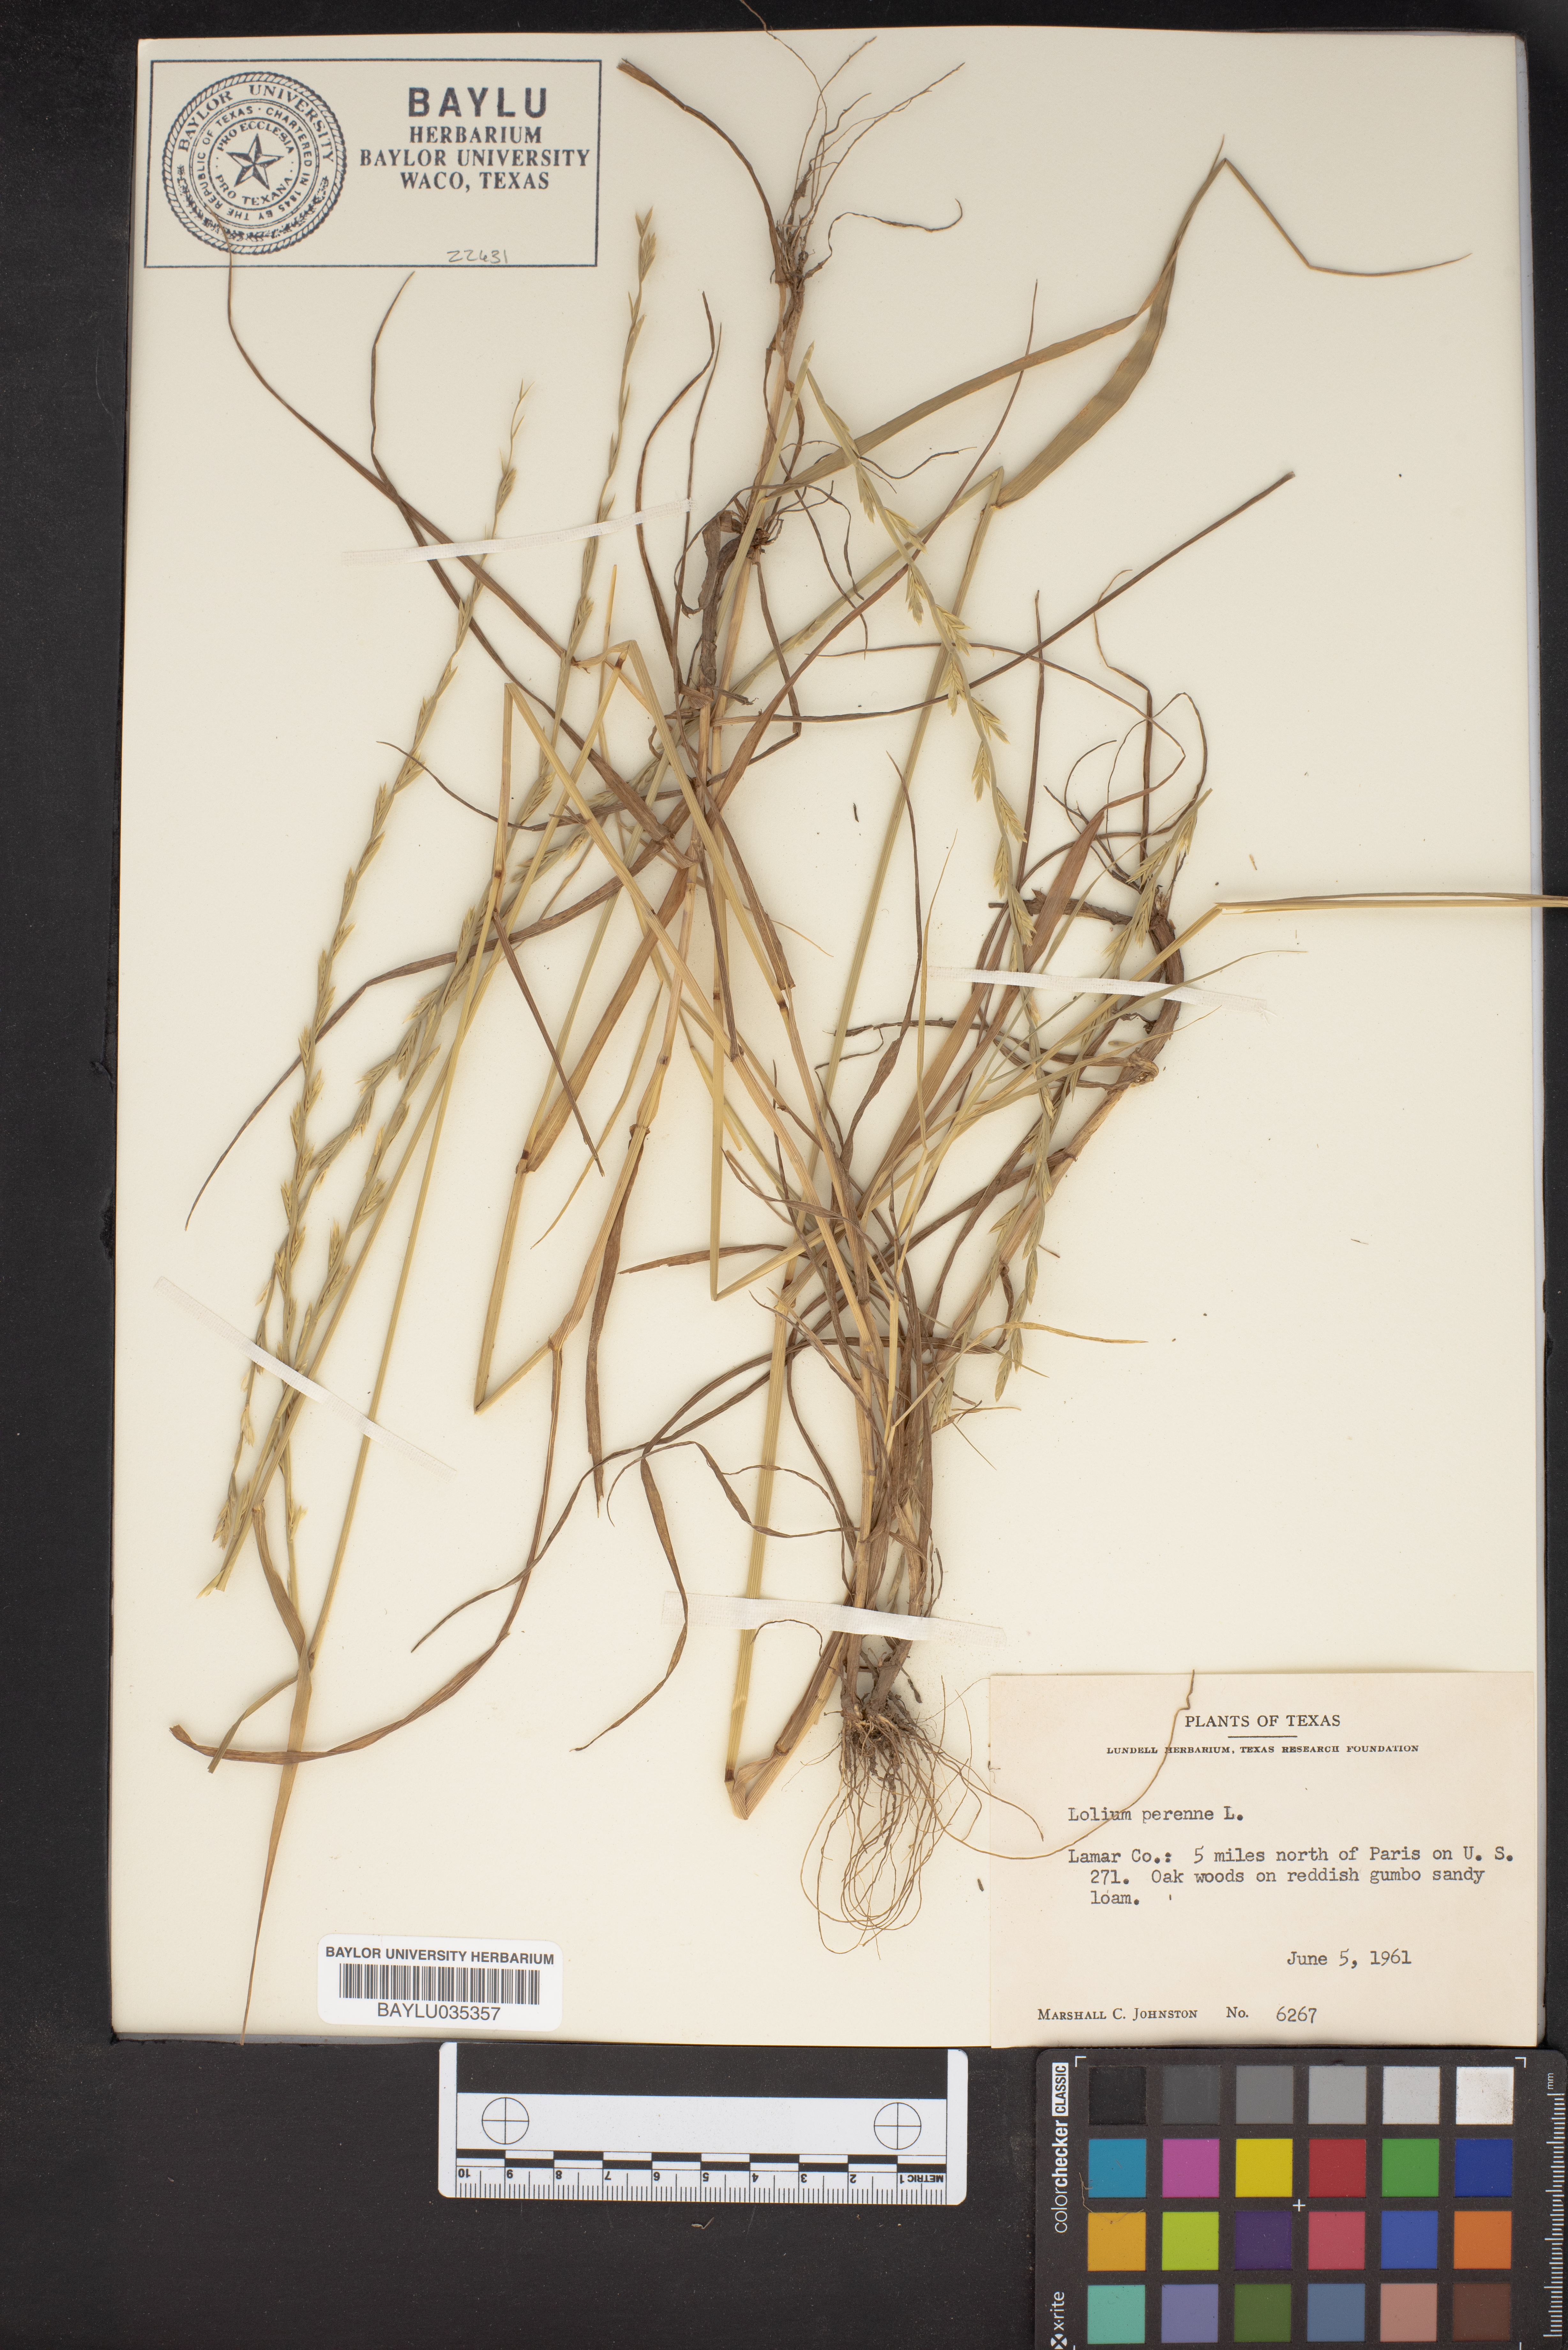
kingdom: Plantae
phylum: Tracheophyta
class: Liliopsida
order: Poales
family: Poaceae
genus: Lolium
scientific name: Lolium perenne
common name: Perennial ryegrass
